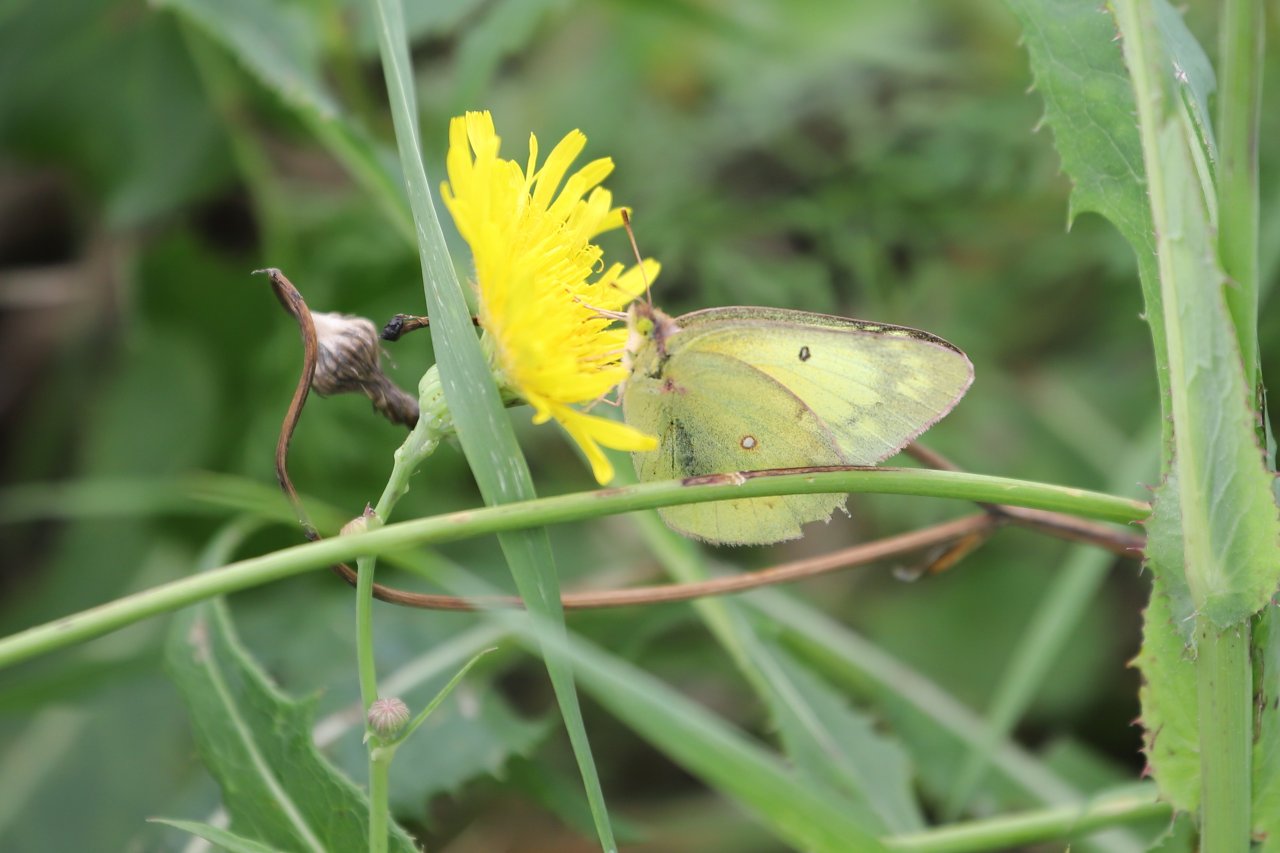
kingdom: Animalia
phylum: Arthropoda
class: Insecta
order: Lepidoptera
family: Pieridae
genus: Colias
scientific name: Colias philodice
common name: Clouded Sulphur
